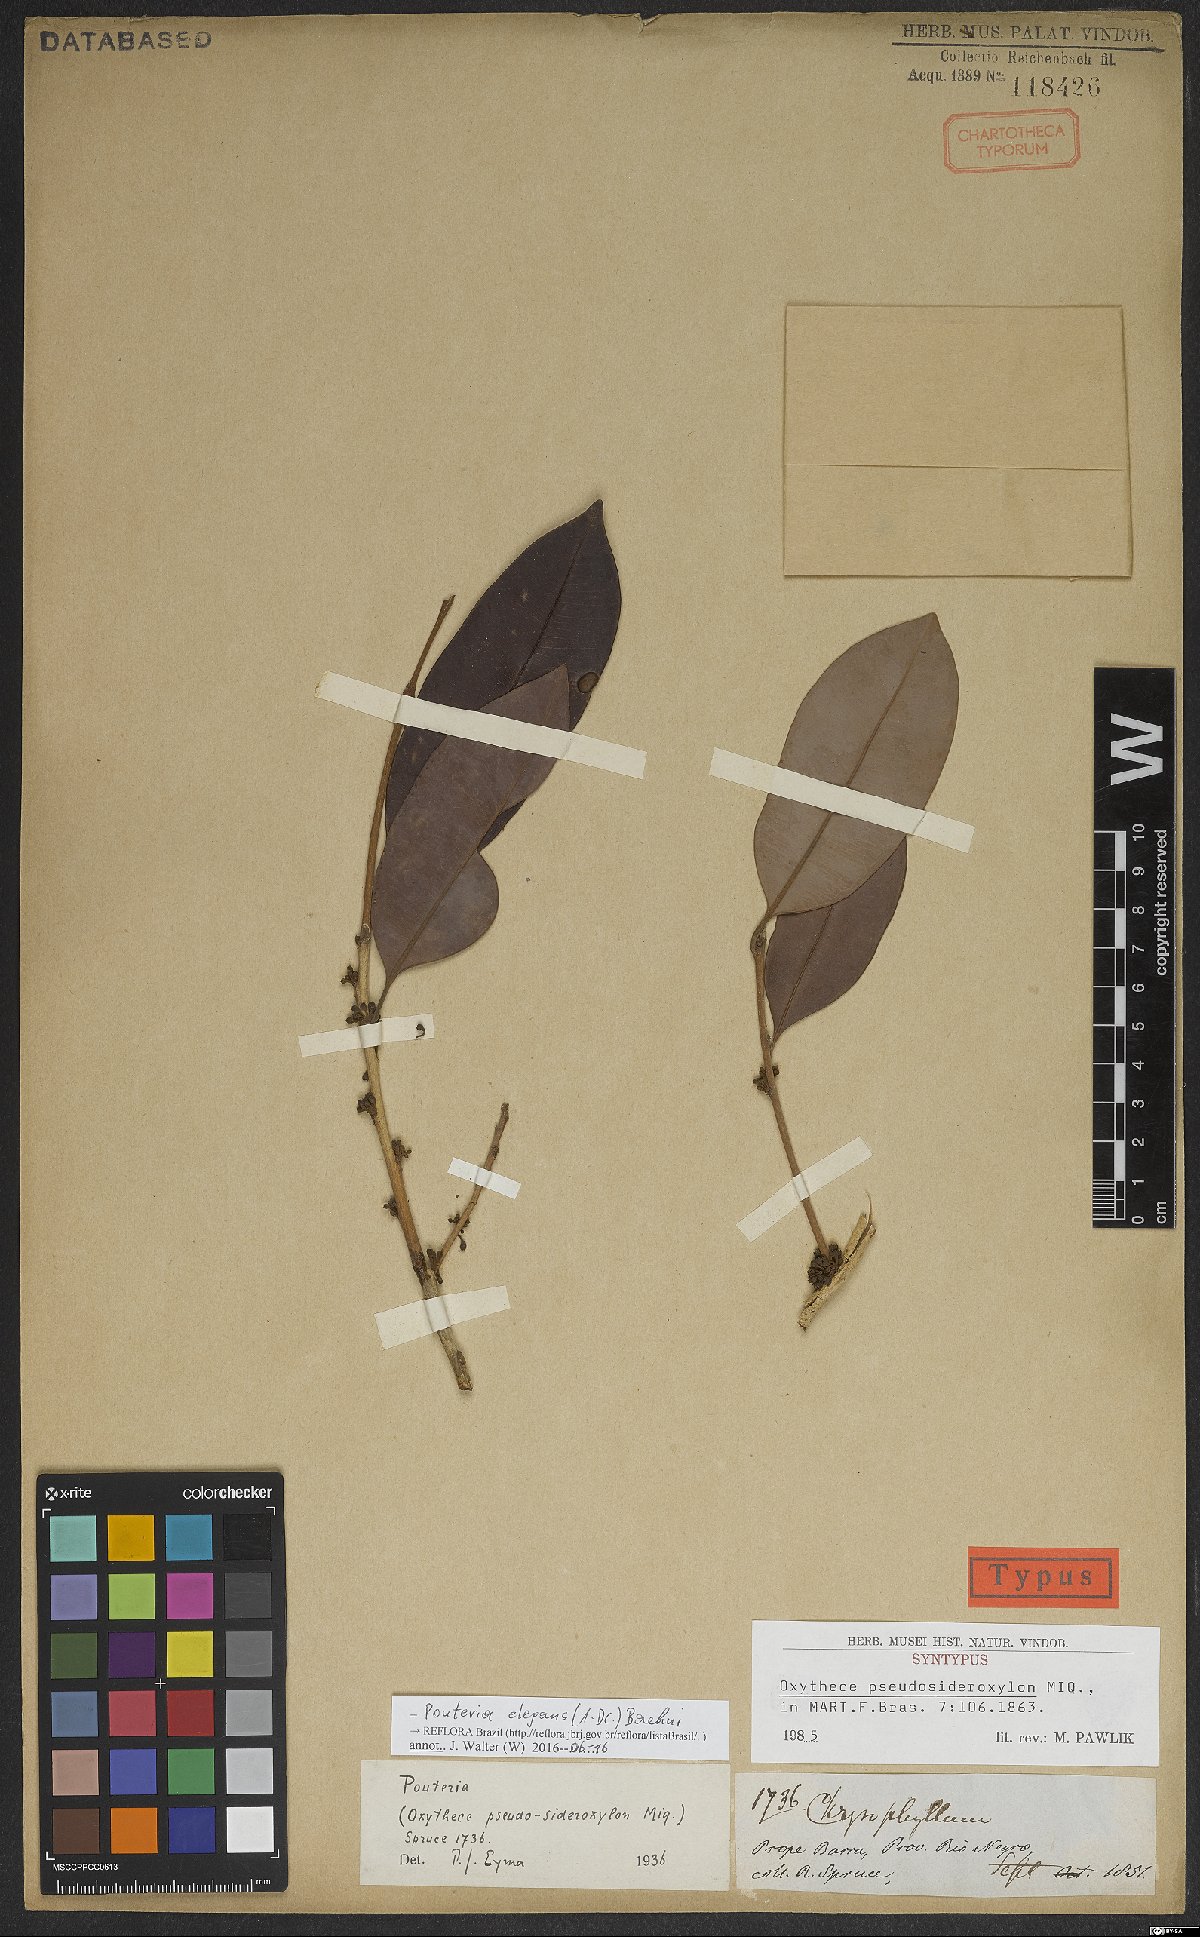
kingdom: Plantae
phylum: Tracheophyta
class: Magnoliopsida
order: Ericales
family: Sapotaceae
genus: Pouteria
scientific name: Pouteria elegans
